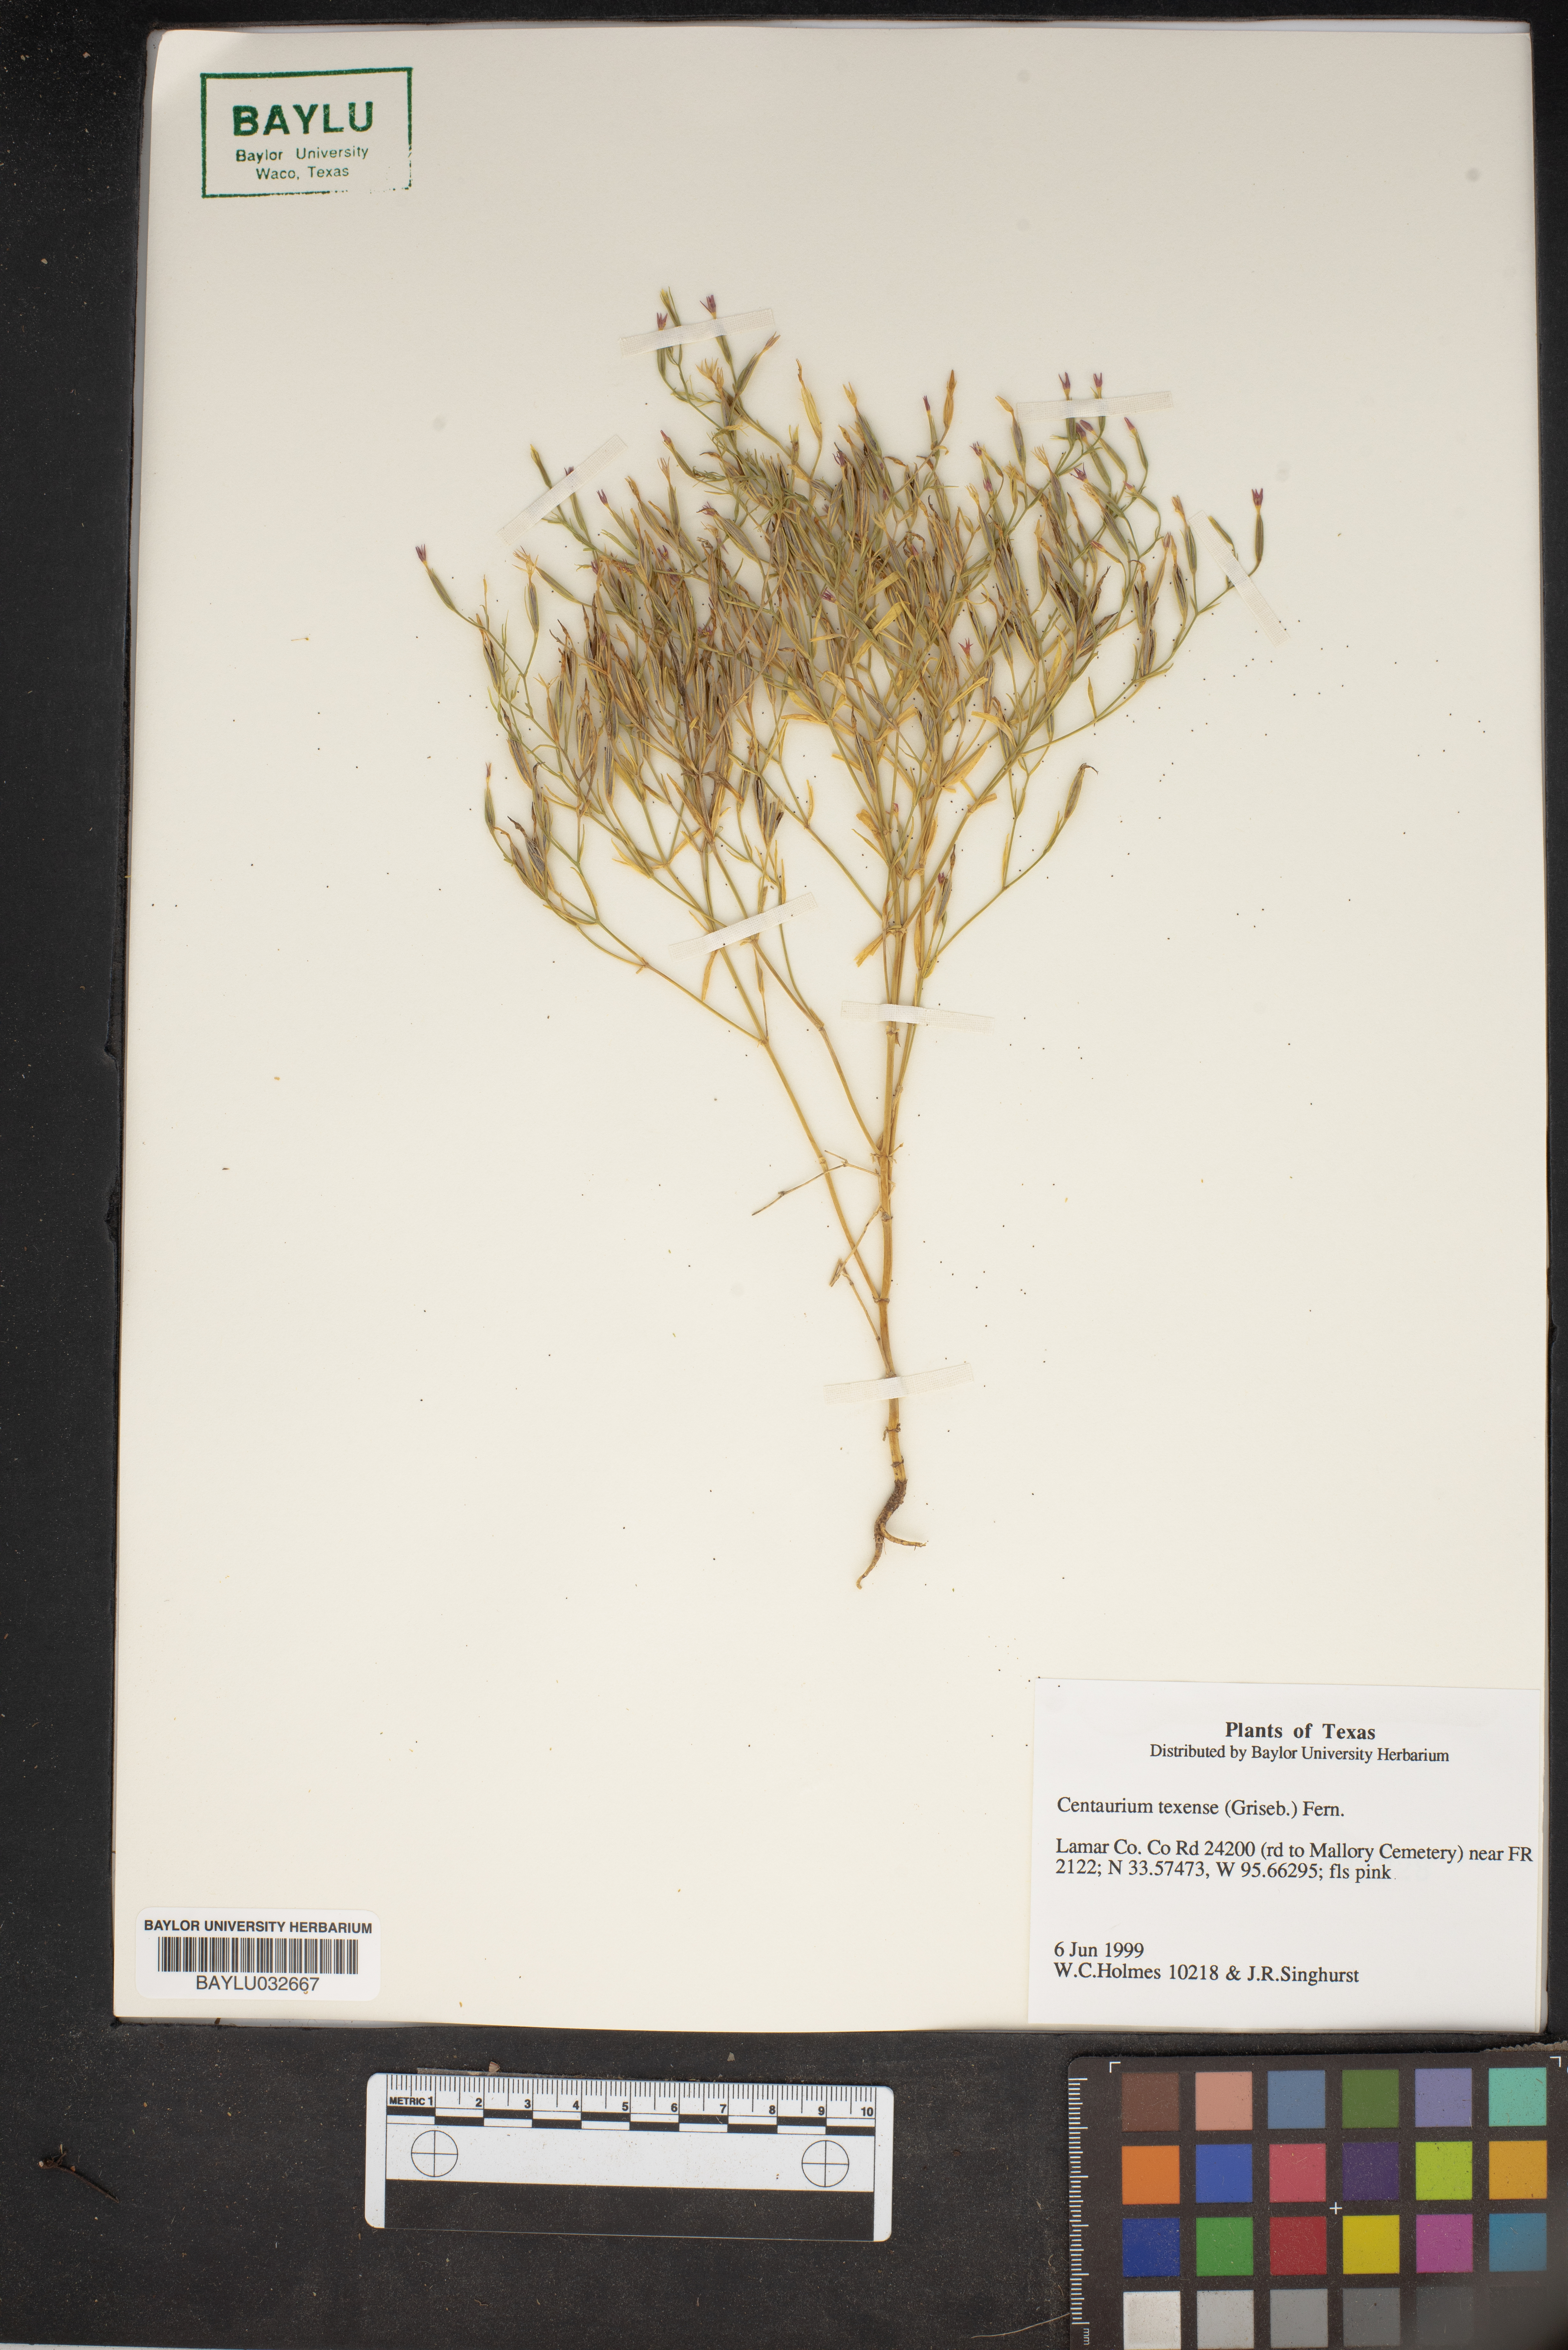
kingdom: Plantae
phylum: Tracheophyta
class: Magnoliopsida
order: Gentianales
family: Gentianaceae
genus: Zeltnera
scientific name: Zeltnera texensis
